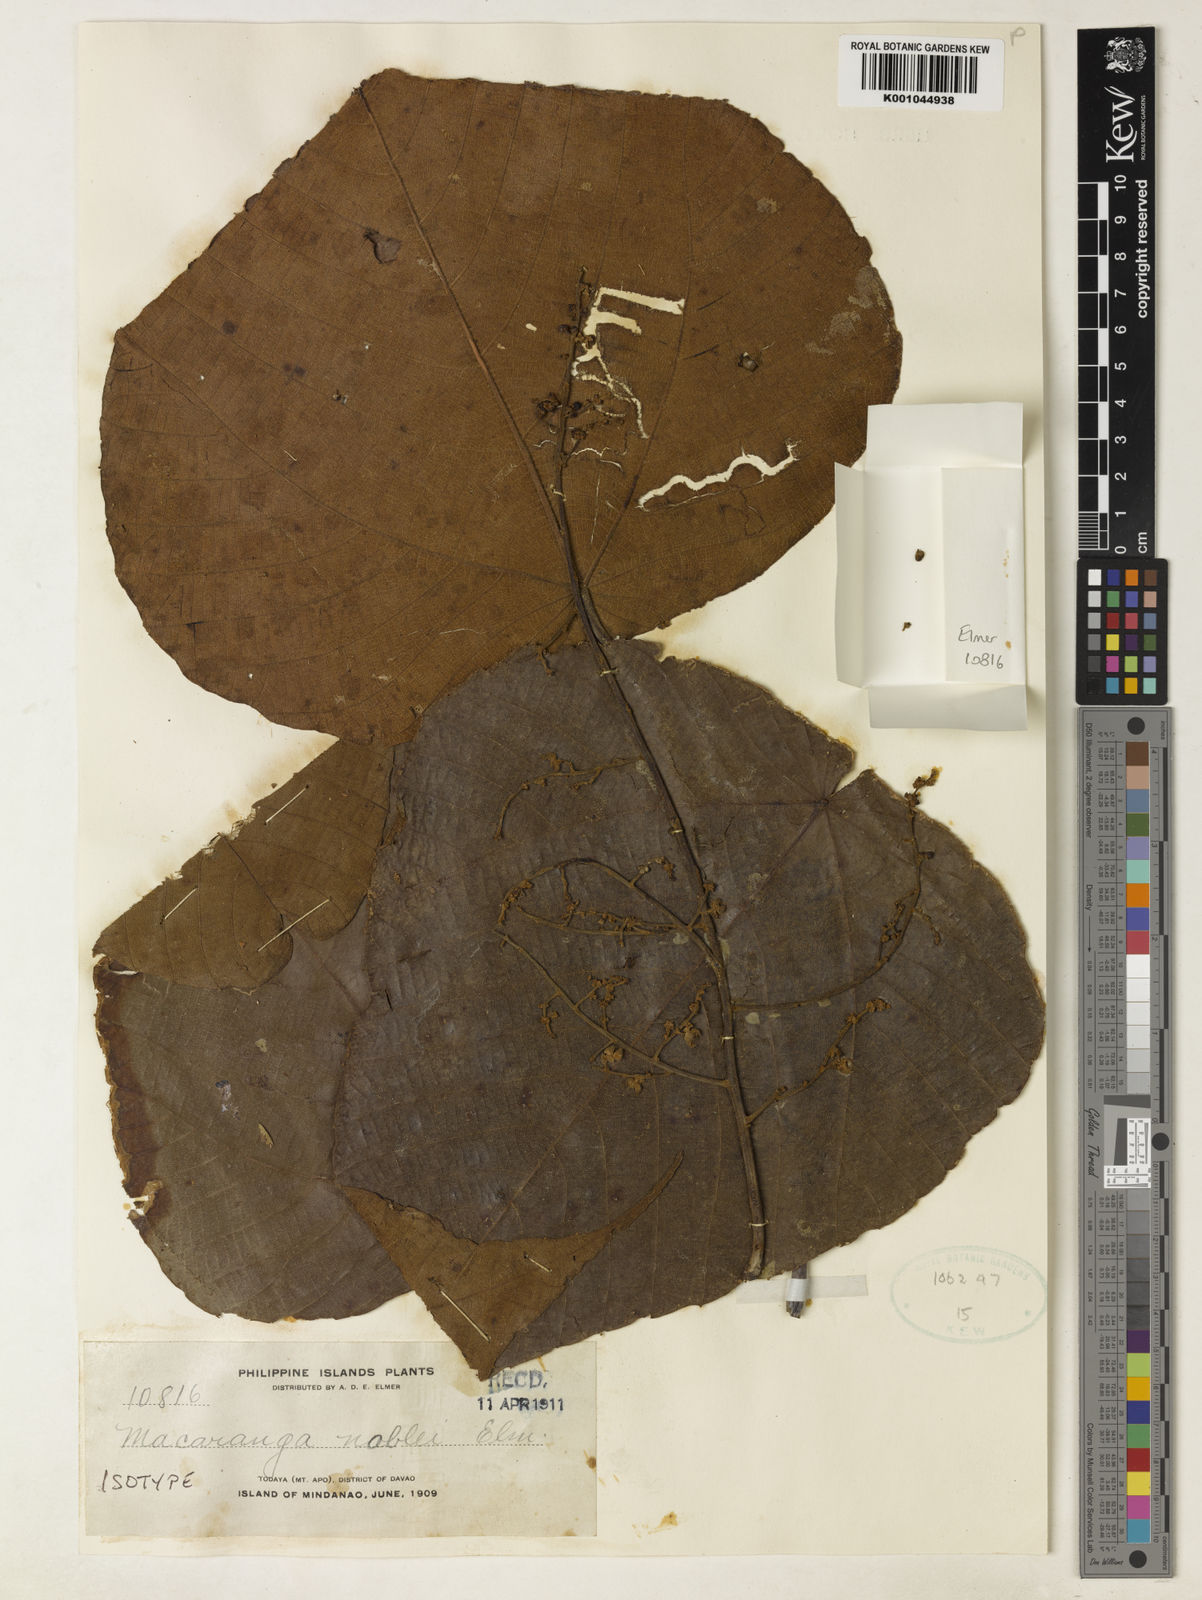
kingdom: Plantae
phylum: Tracheophyta
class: Magnoliopsida
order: Malpighiales
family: Euphorbiaceae
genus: Macaranga
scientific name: Macaranga noblei
